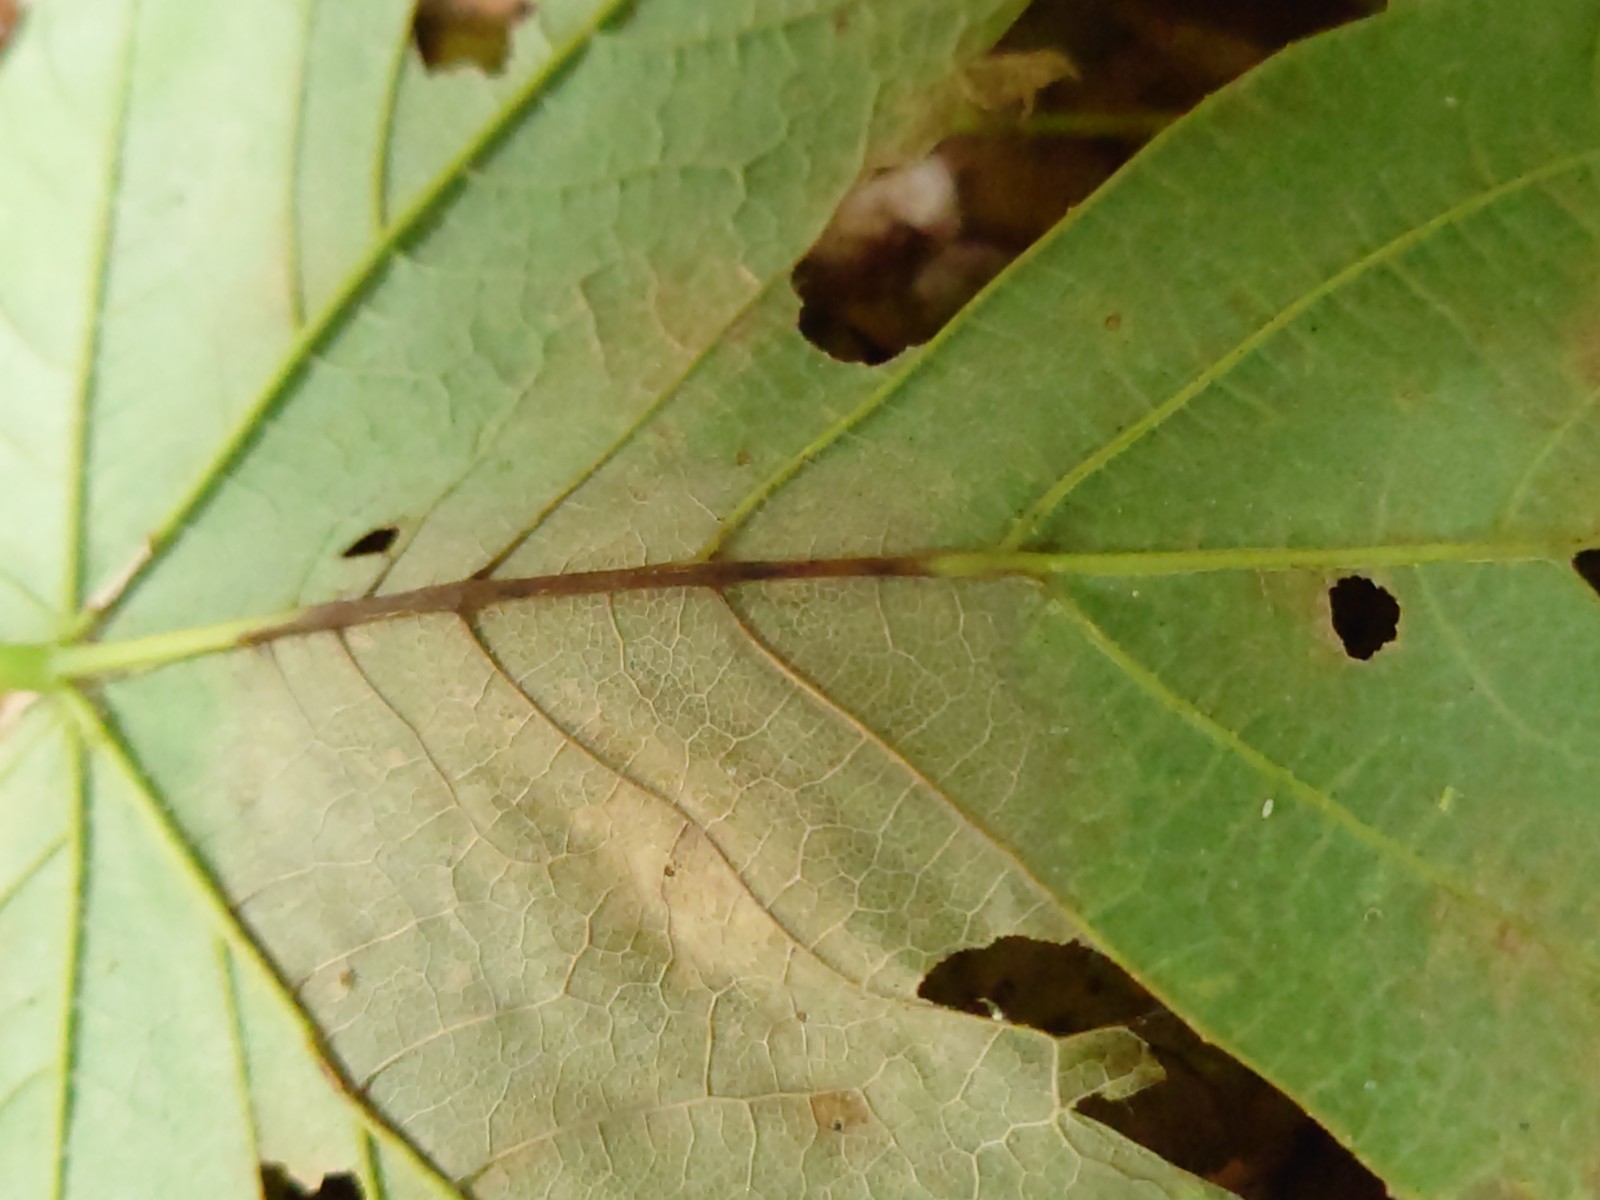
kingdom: Fungi
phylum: Ascomycota
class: Sordariomycetes
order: Diaporthales
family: Gnomoniaceae
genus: Pleuroceras
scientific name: Pleuroceras pseudoplatani
